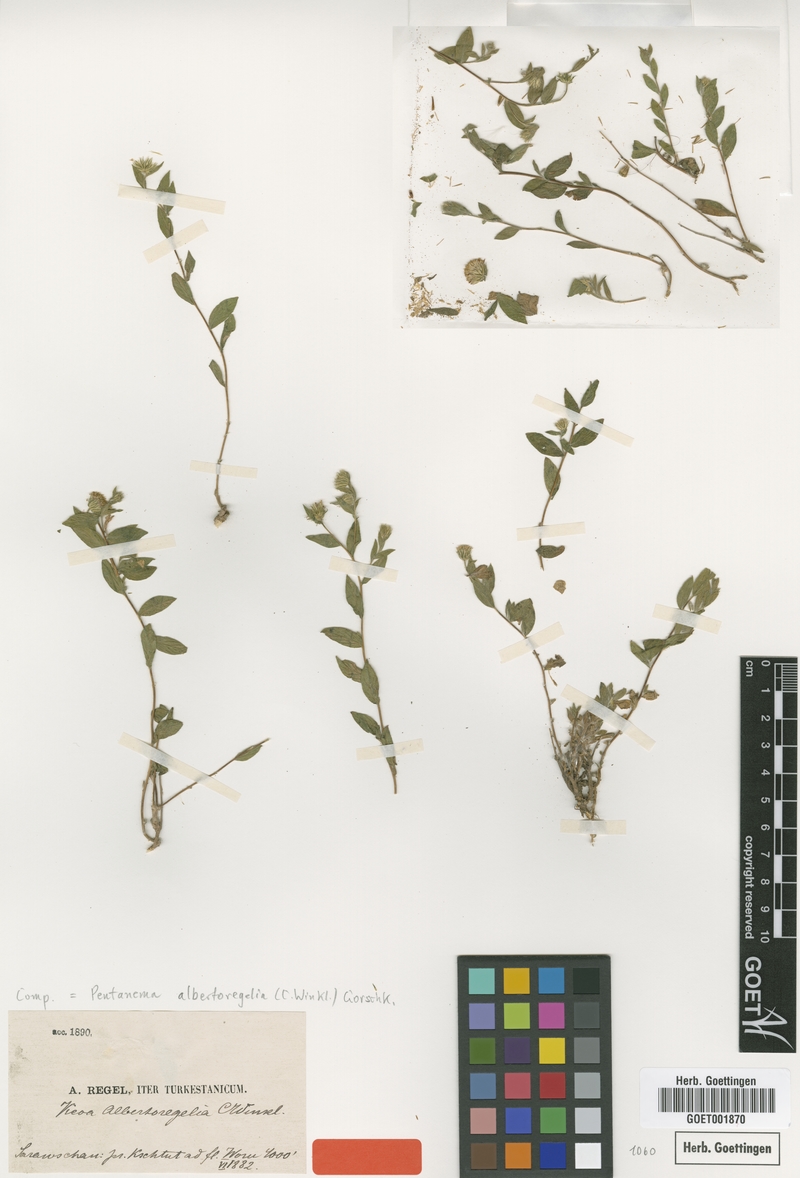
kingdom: Plantae
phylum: Tracheophyta
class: Magnoliopsida
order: Asterales
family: Asteraceae
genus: Vicoa
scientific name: Vicoa albertoregelia
